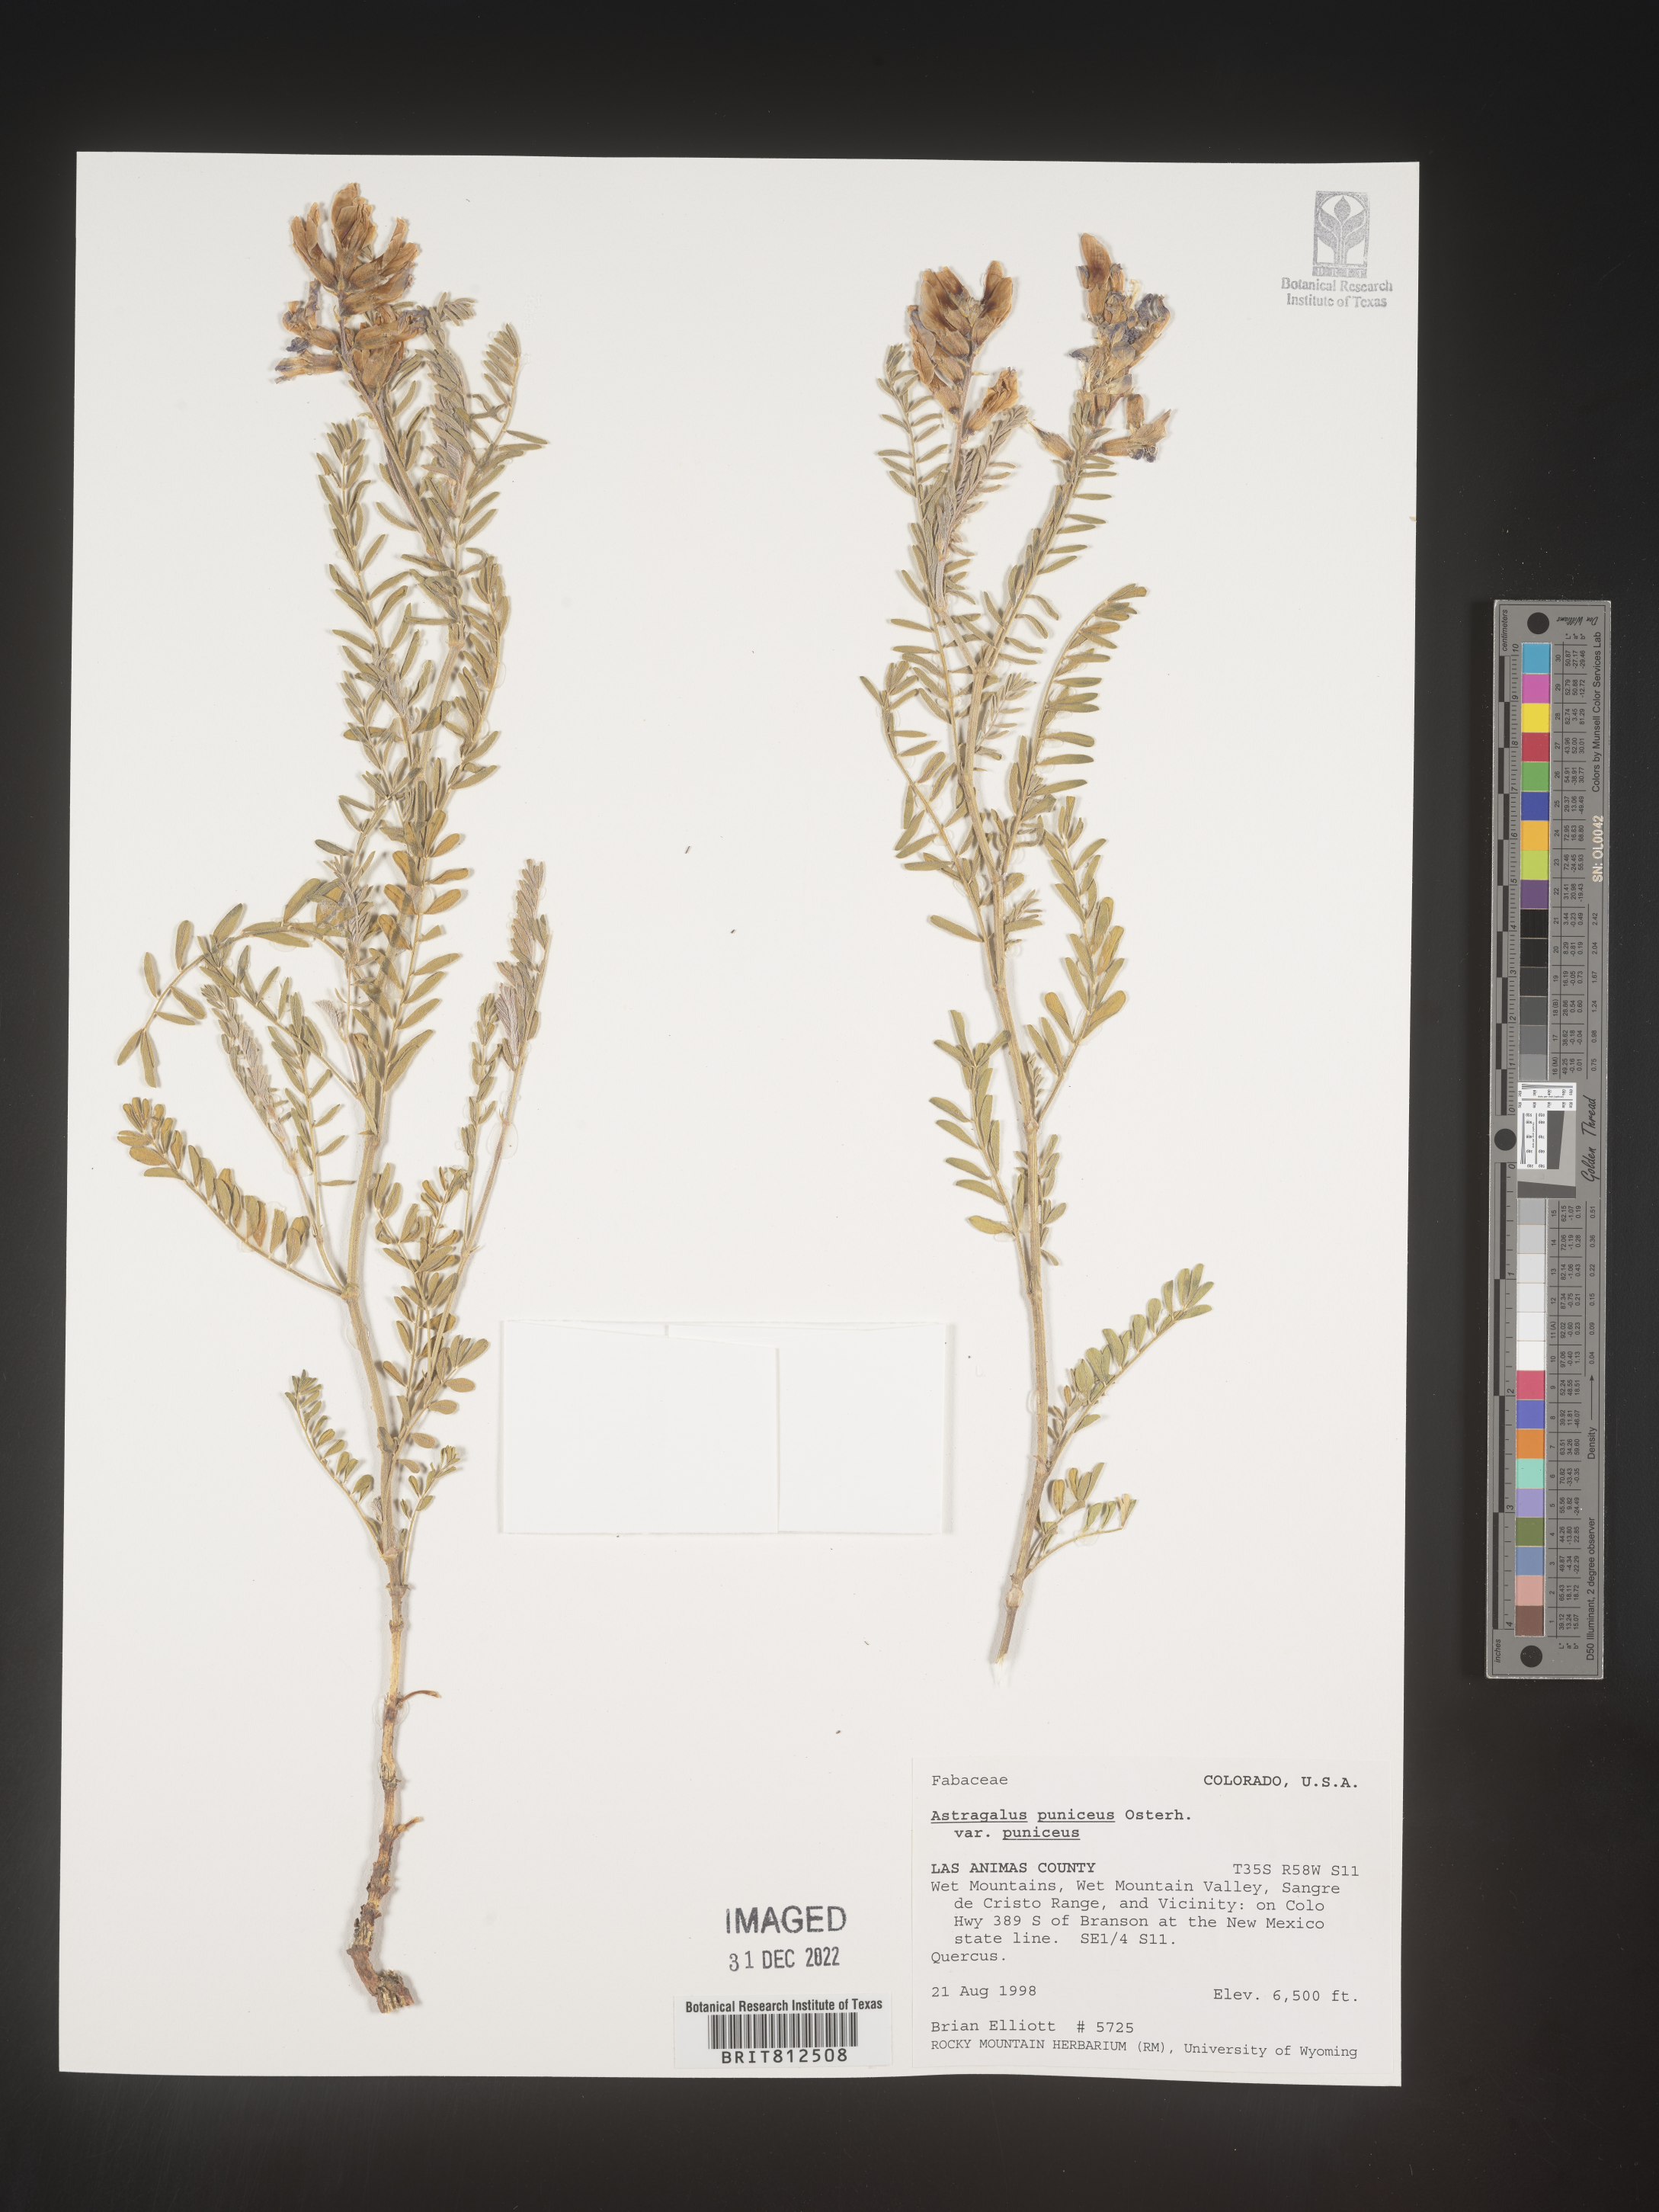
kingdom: Plantae
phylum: Tracheophyta
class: Magnoliopsida
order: Fabales
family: Fabaceae
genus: Astragalus
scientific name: Astragalus puniceus
